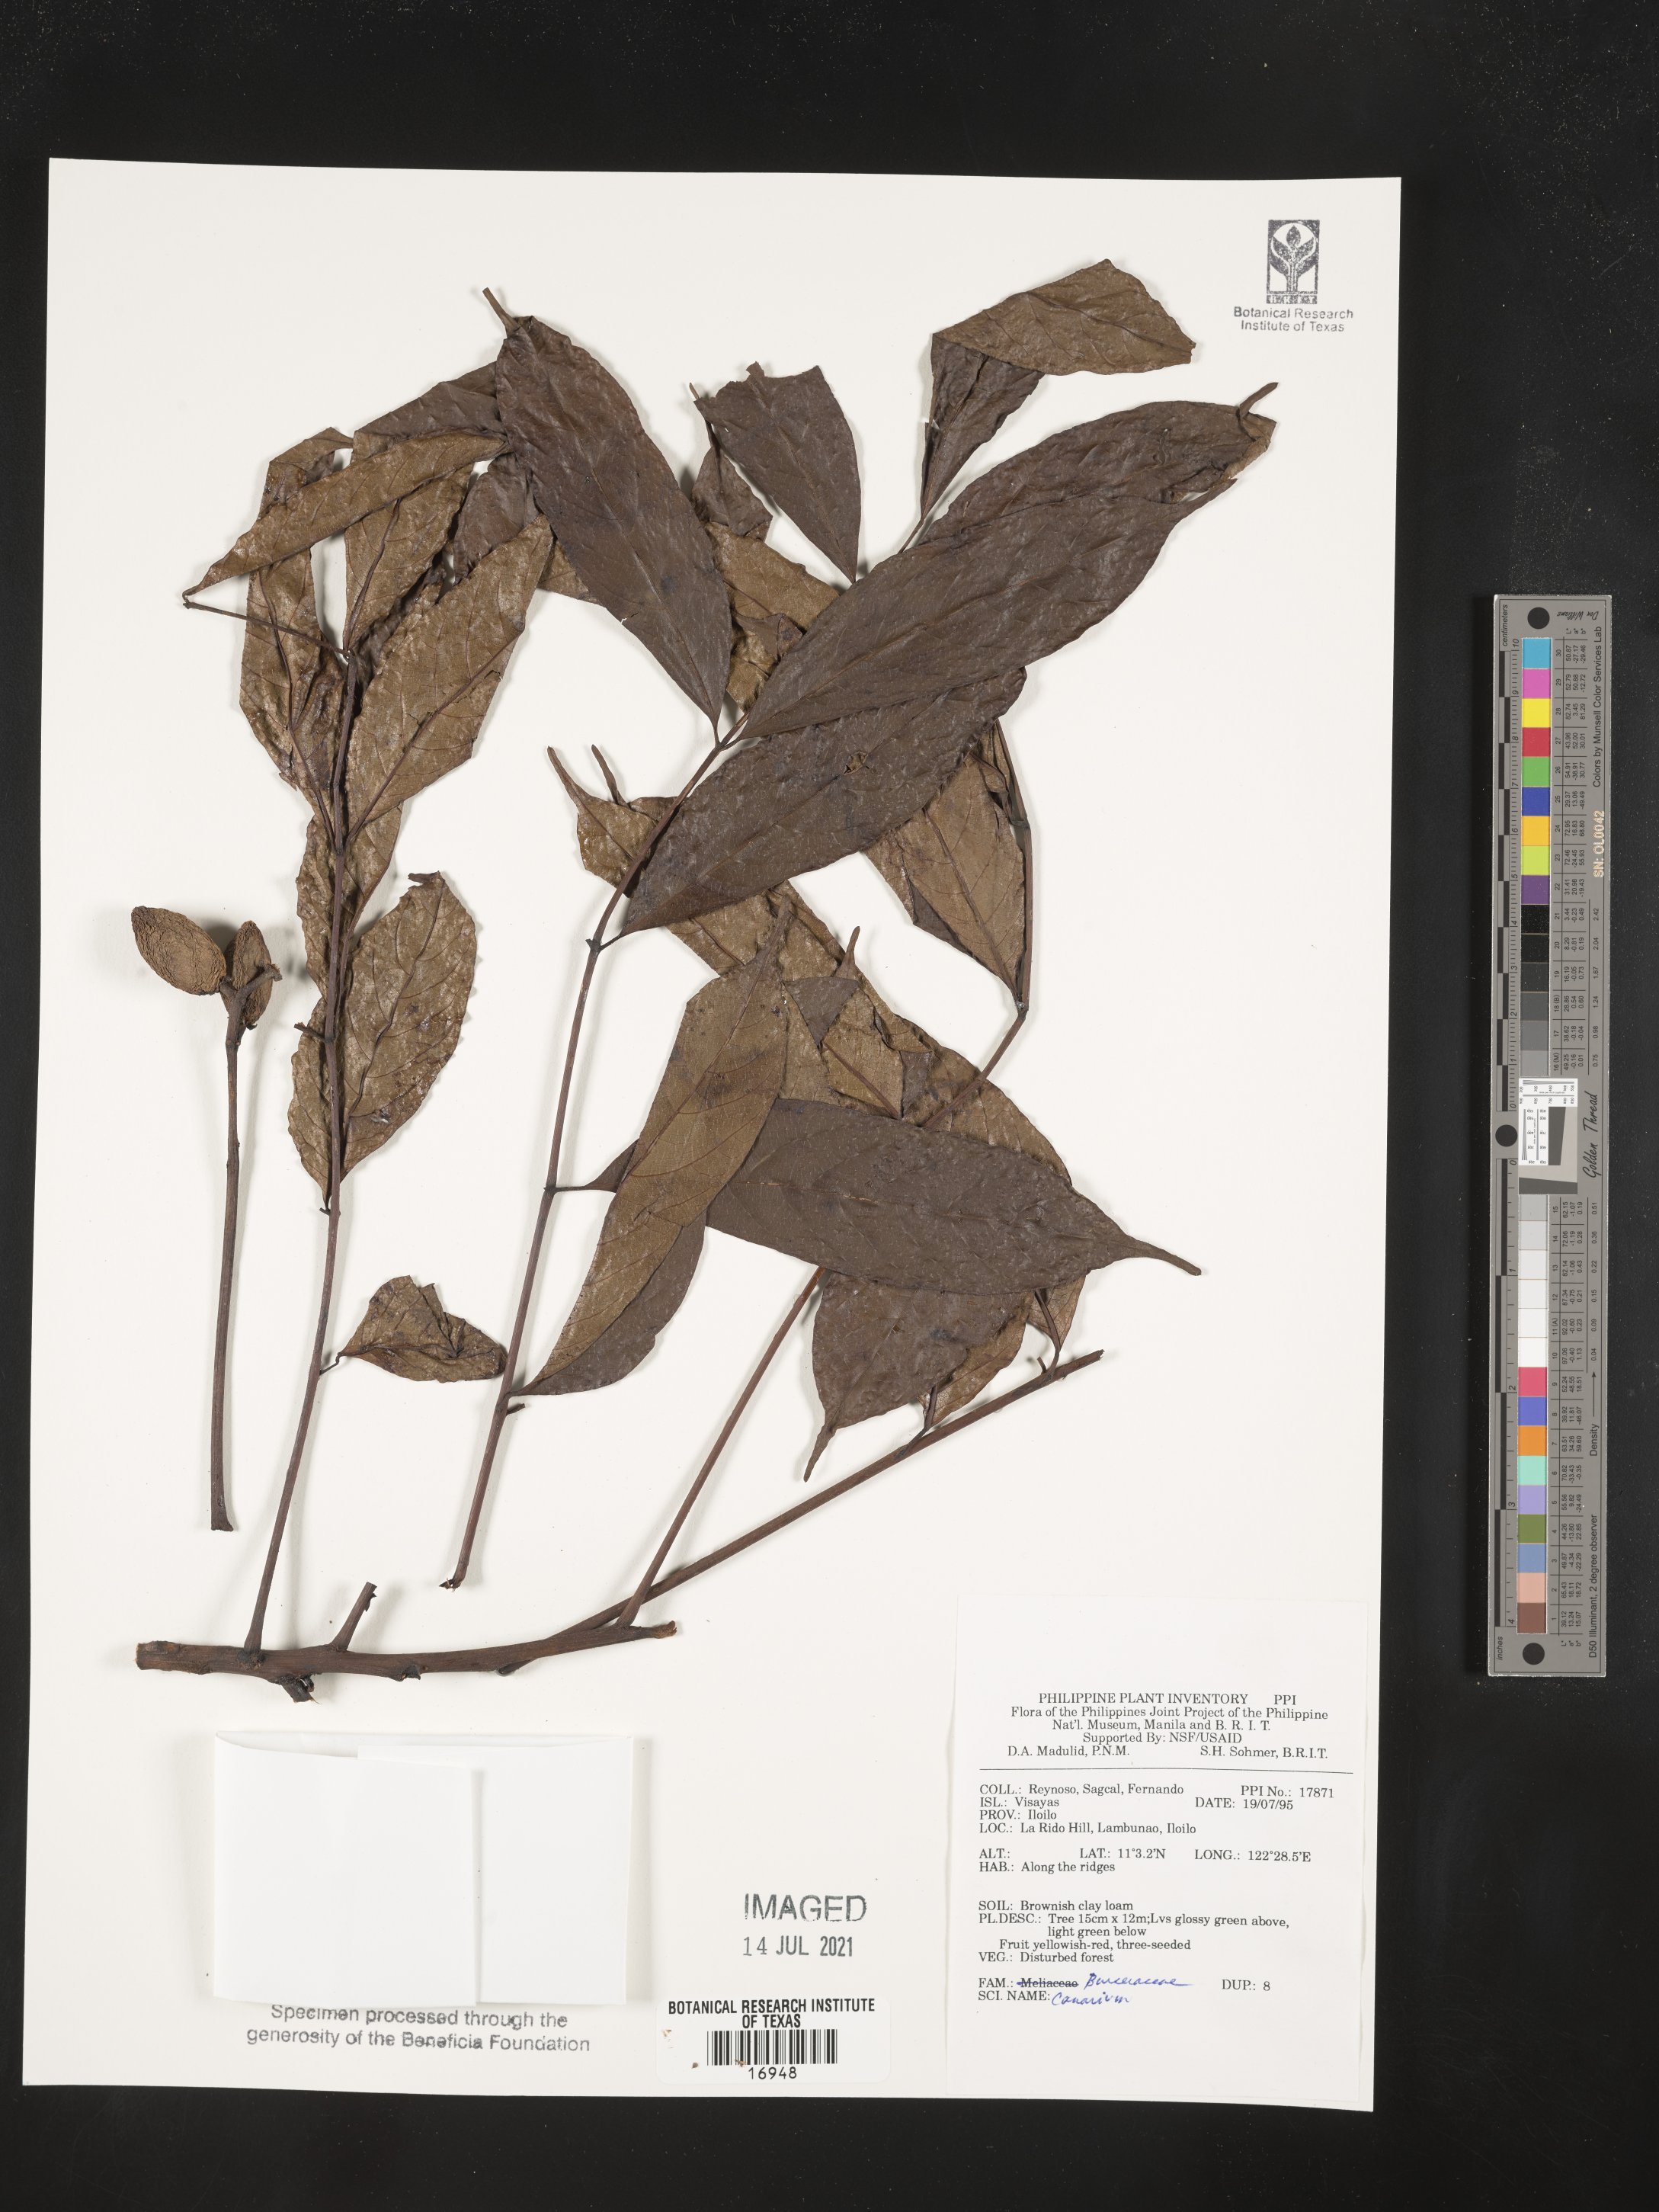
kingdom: Plantae
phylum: Tracheophyta
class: Magnoliopsida
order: Sapindales
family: Burseraceae
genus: Canarium
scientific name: Canarium
